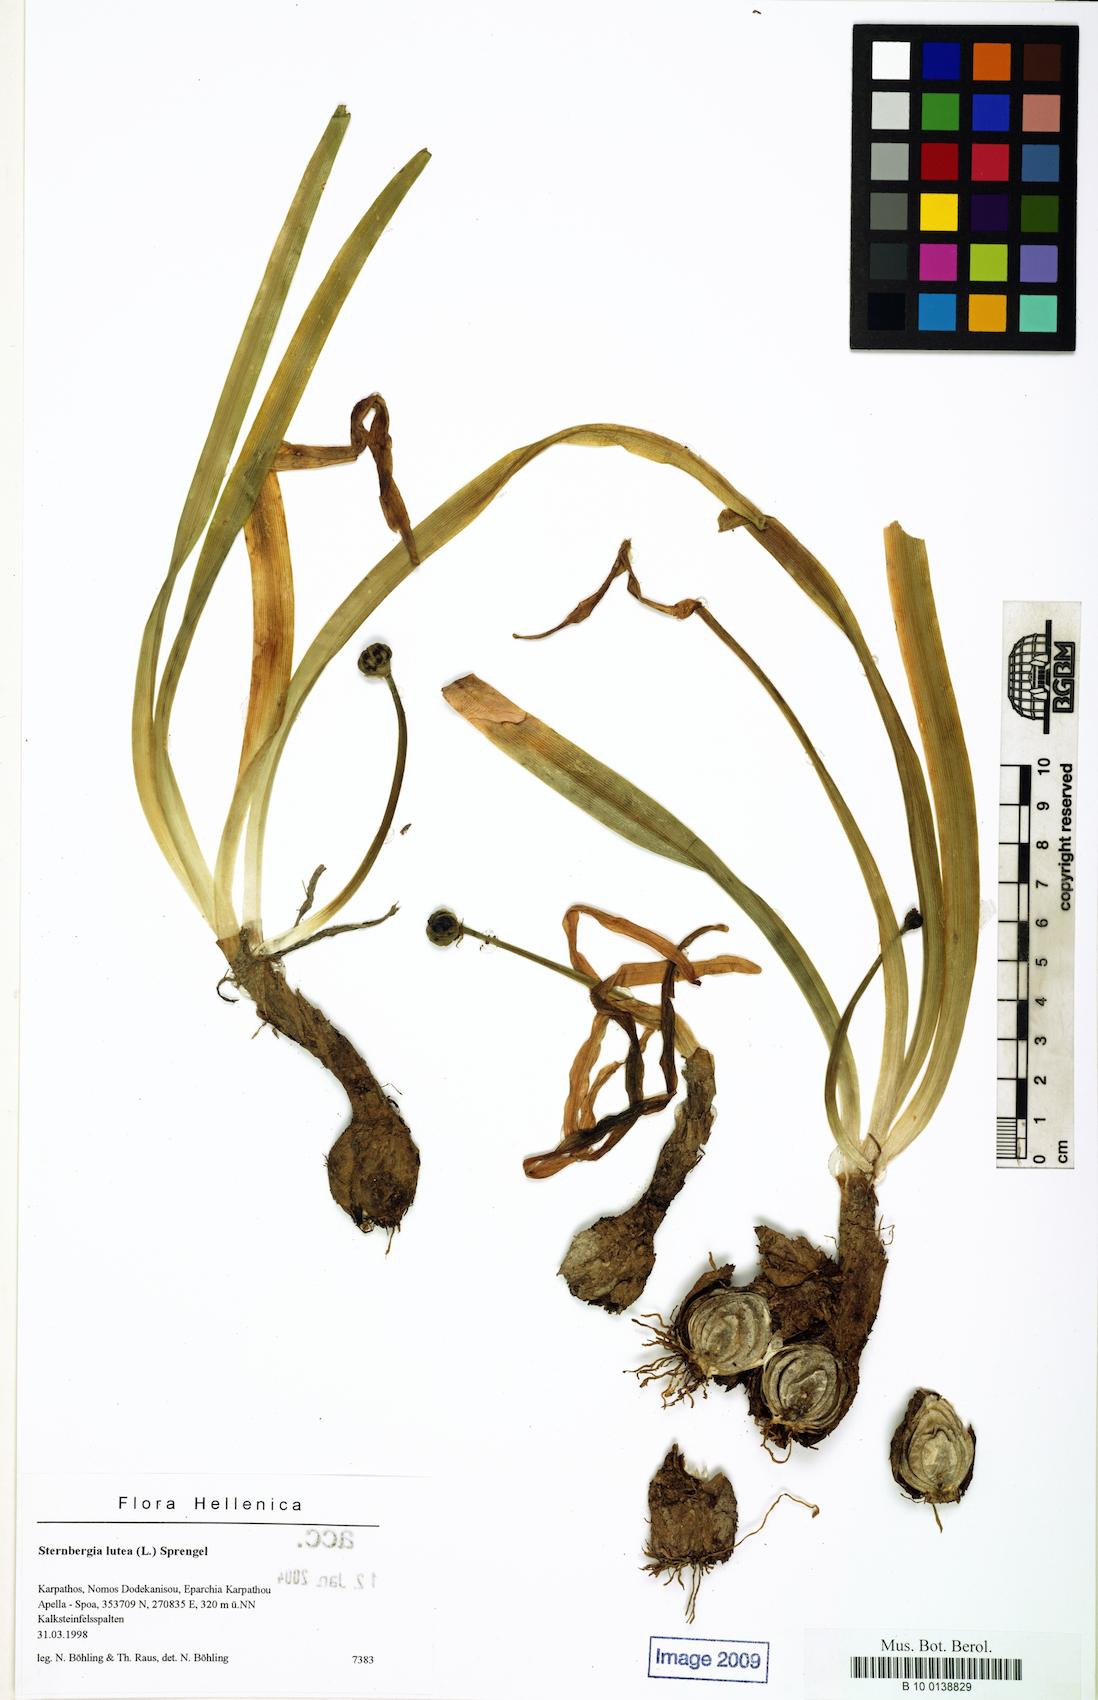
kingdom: Plantae
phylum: Tracheophyta
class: Liliopsida
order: Asparagales
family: Amaryllidaceae
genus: Sternbergia
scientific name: Sternbergia lutea
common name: Winter daffodil
